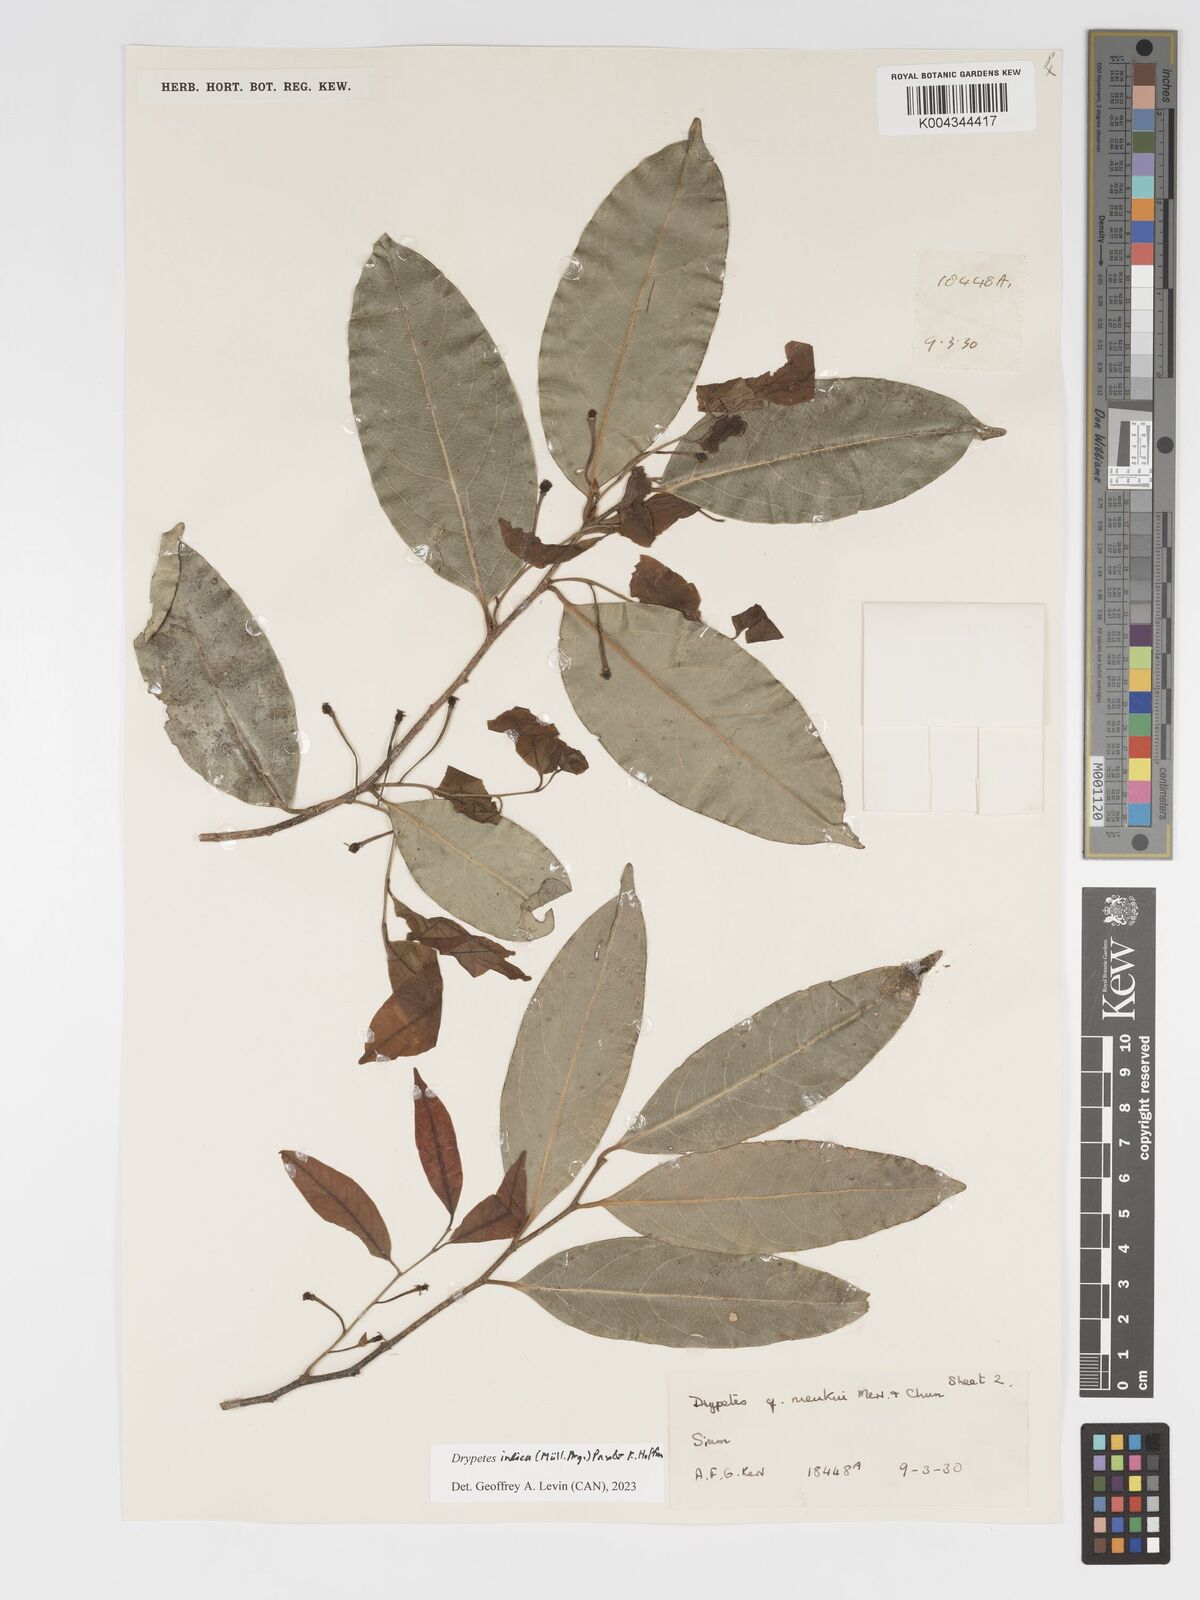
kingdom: Plantae
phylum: Tracheophyta
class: Magnoliopsida
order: Malpighiales
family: Putranjivaceae
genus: Drypetes
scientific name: Drypetes indica
